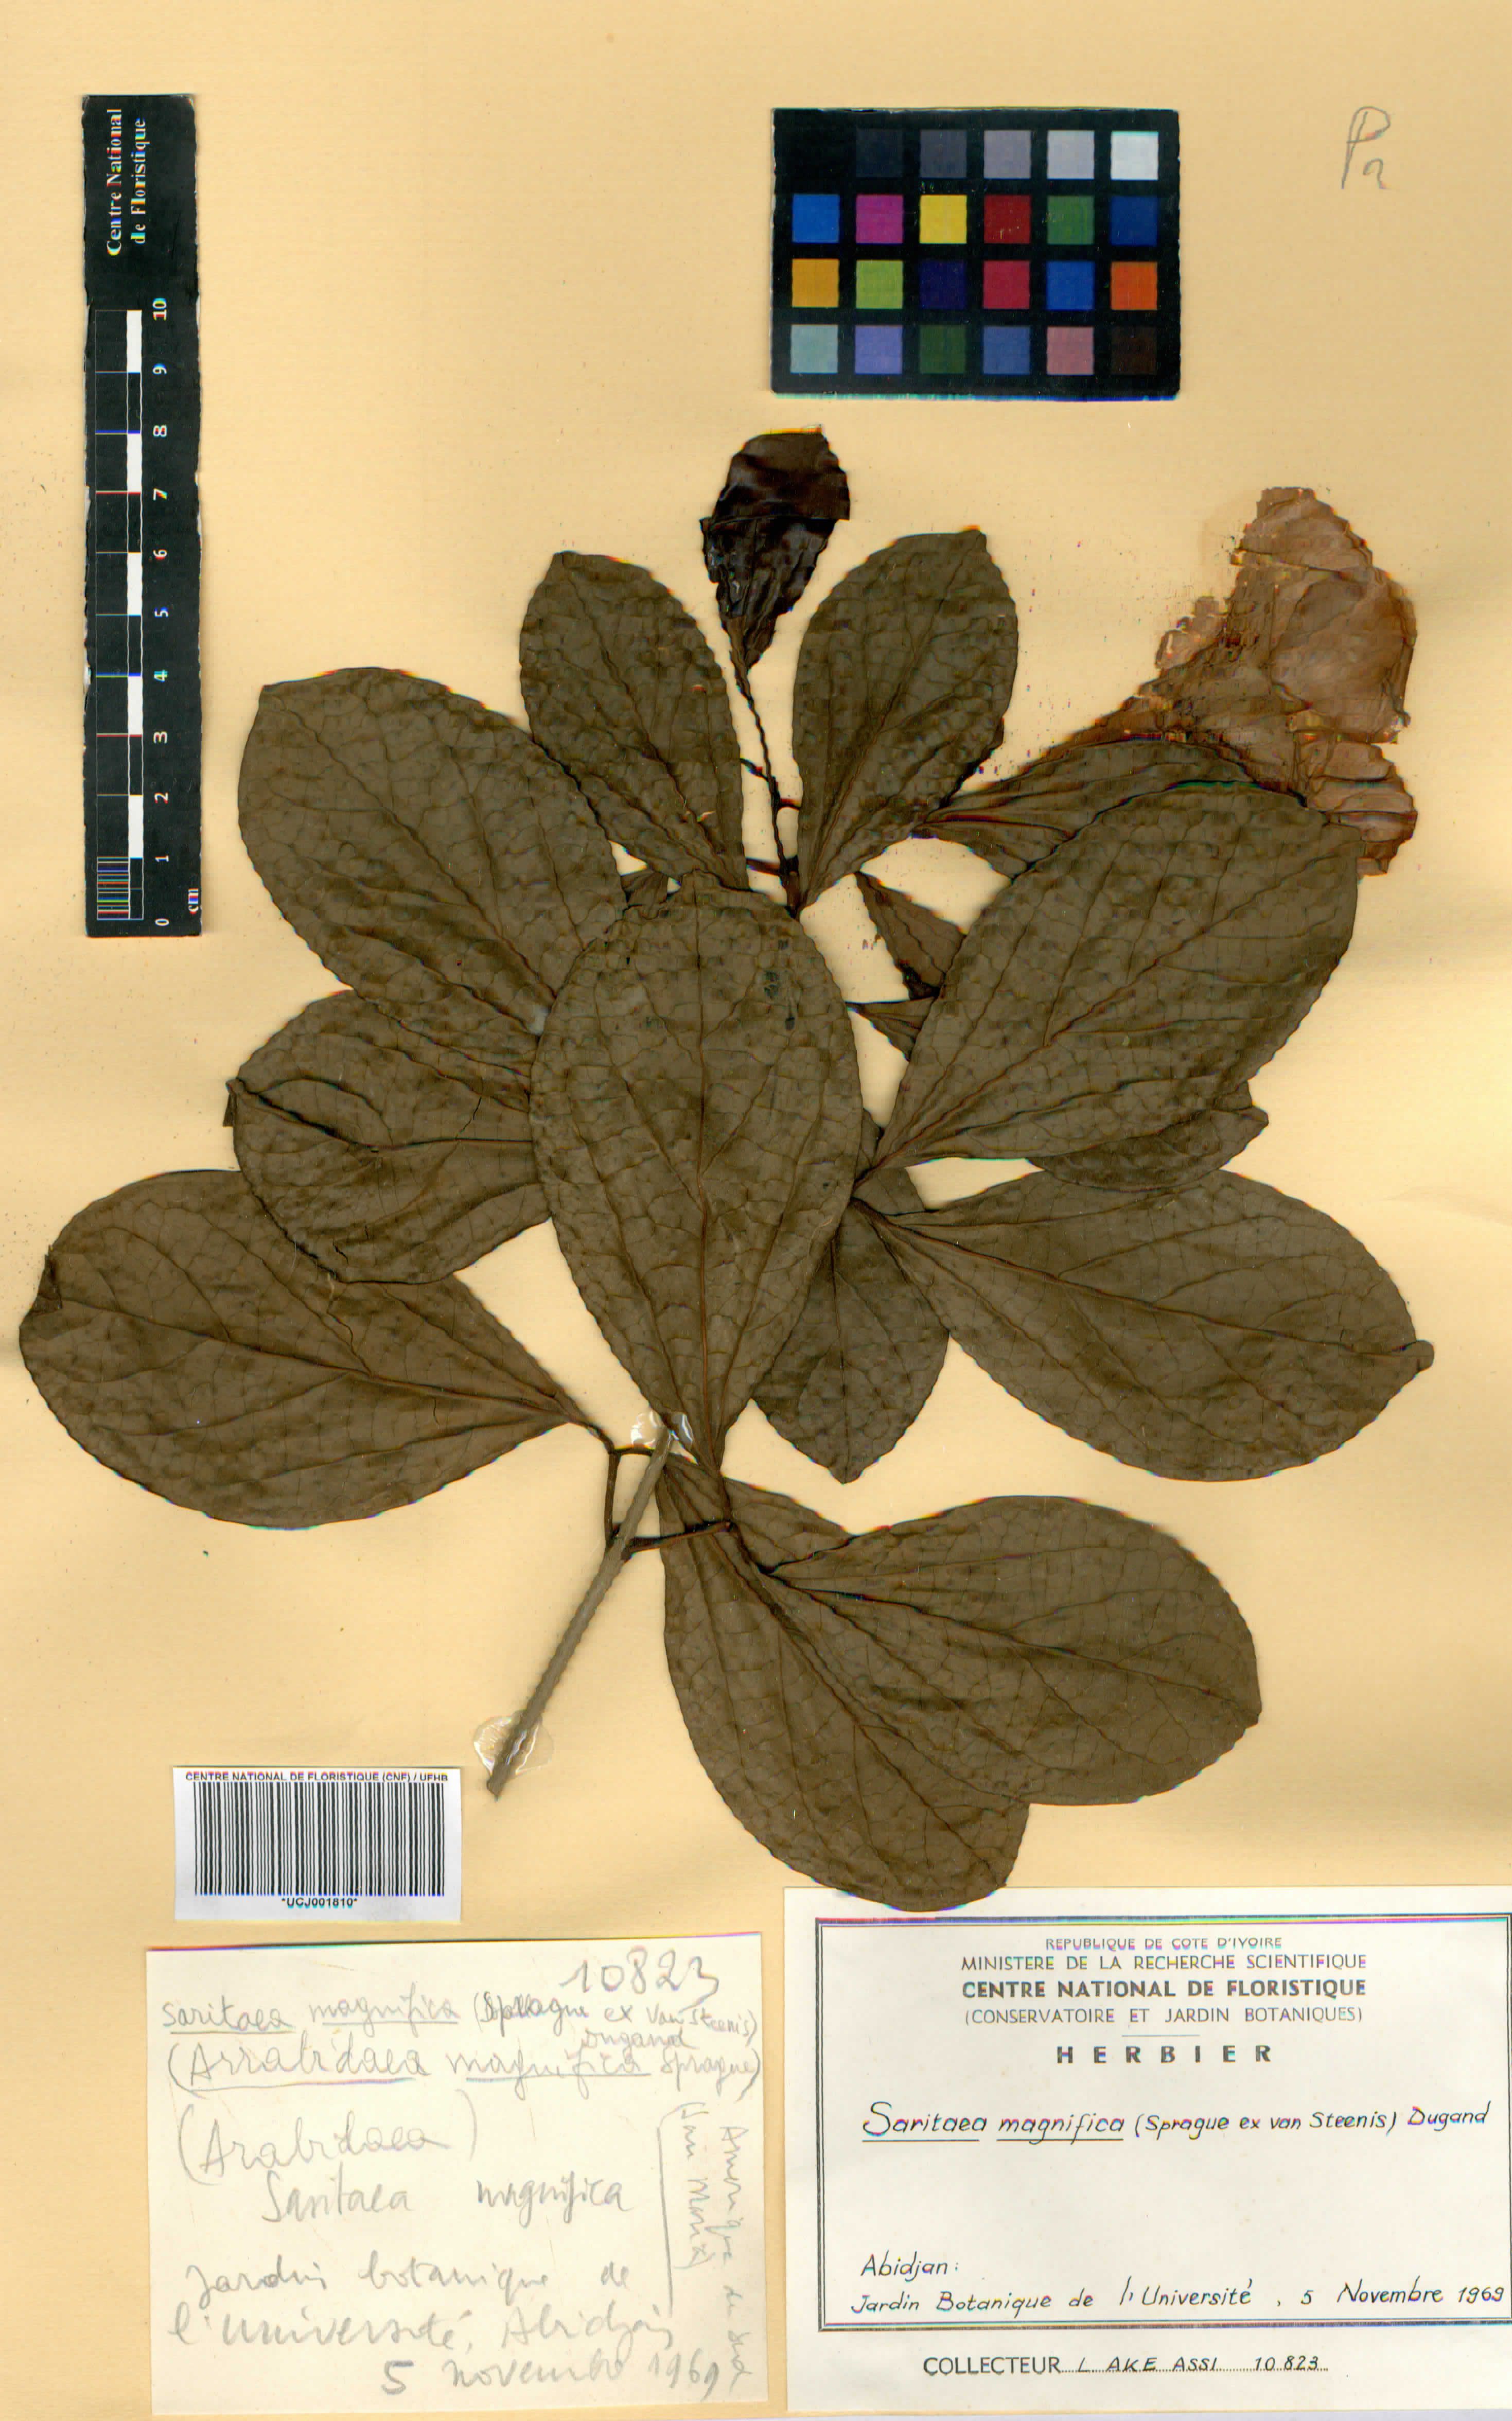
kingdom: Plantae
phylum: Tracheophyta
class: Magnoliopsida
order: Lamiales
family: Bignoniaceae
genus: Bignonia
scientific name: Bignonia magnifica
